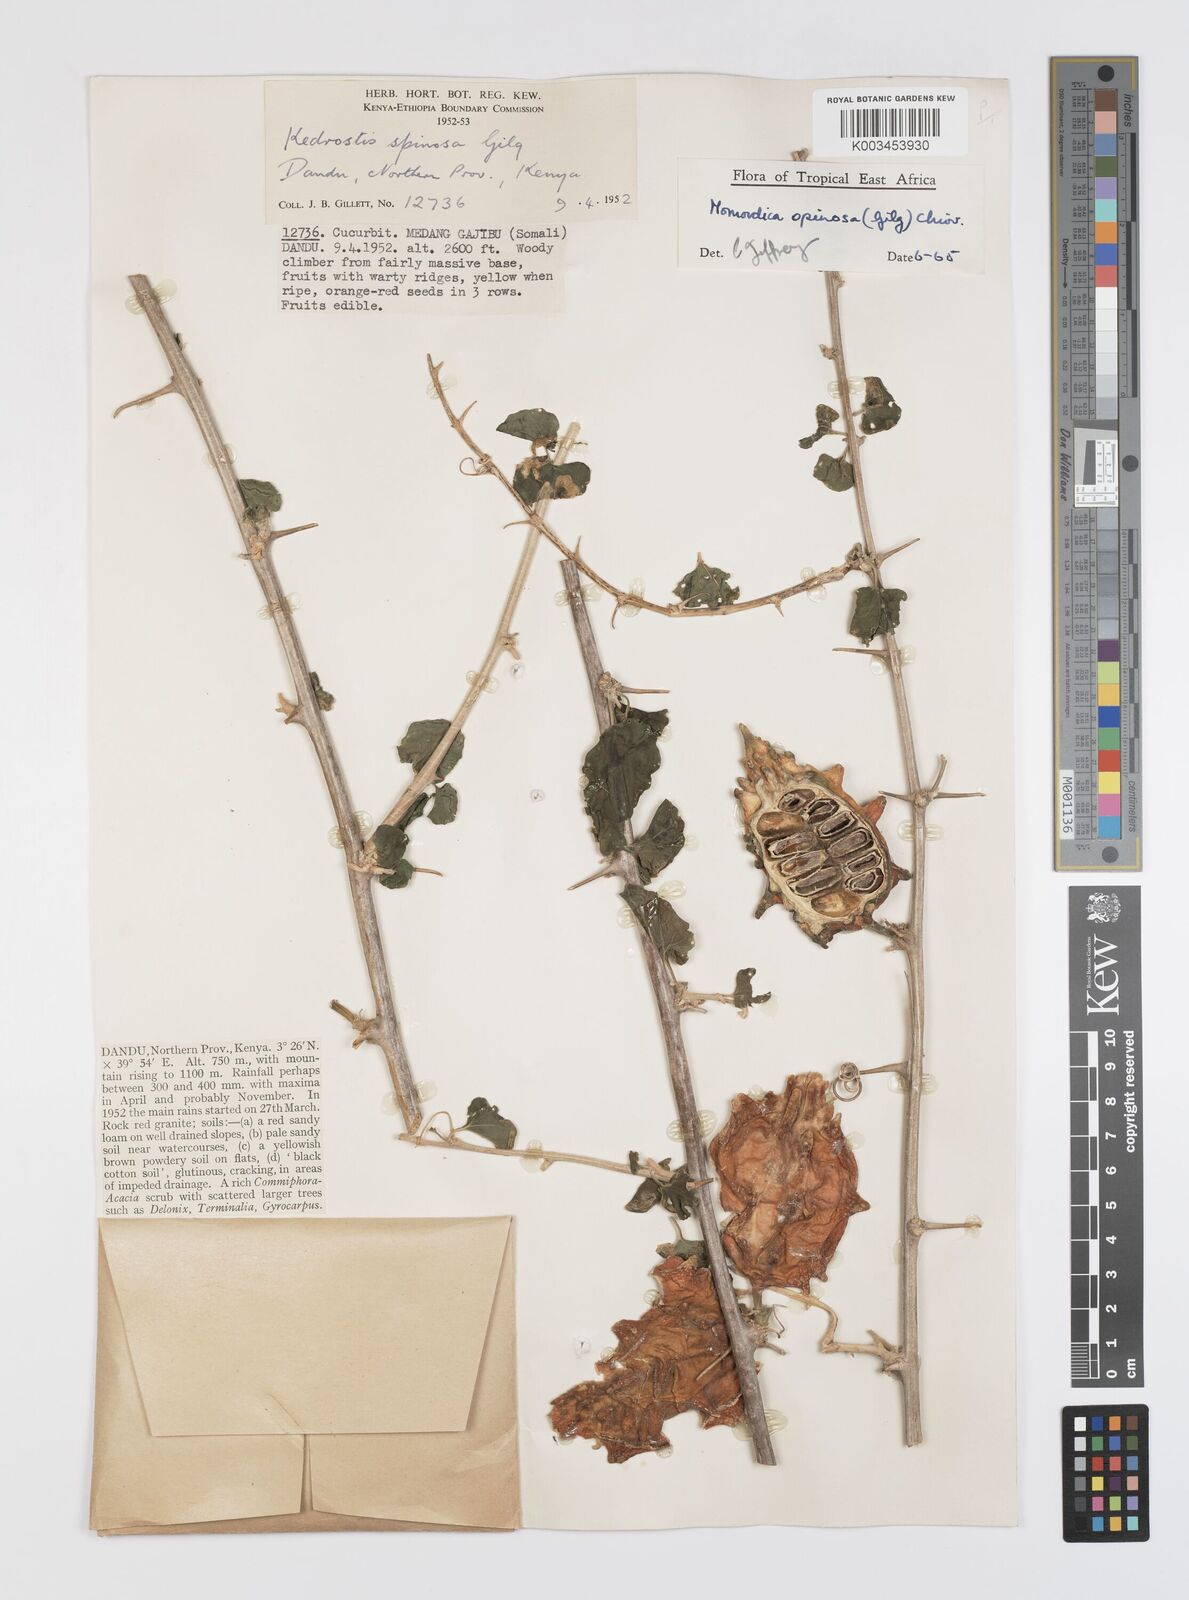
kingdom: Plantae
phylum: Tracheophyta
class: Magnoliopsida
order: Cucurbitales
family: Cucurbitaceae
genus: Momordica
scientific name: Momordica spinosa
